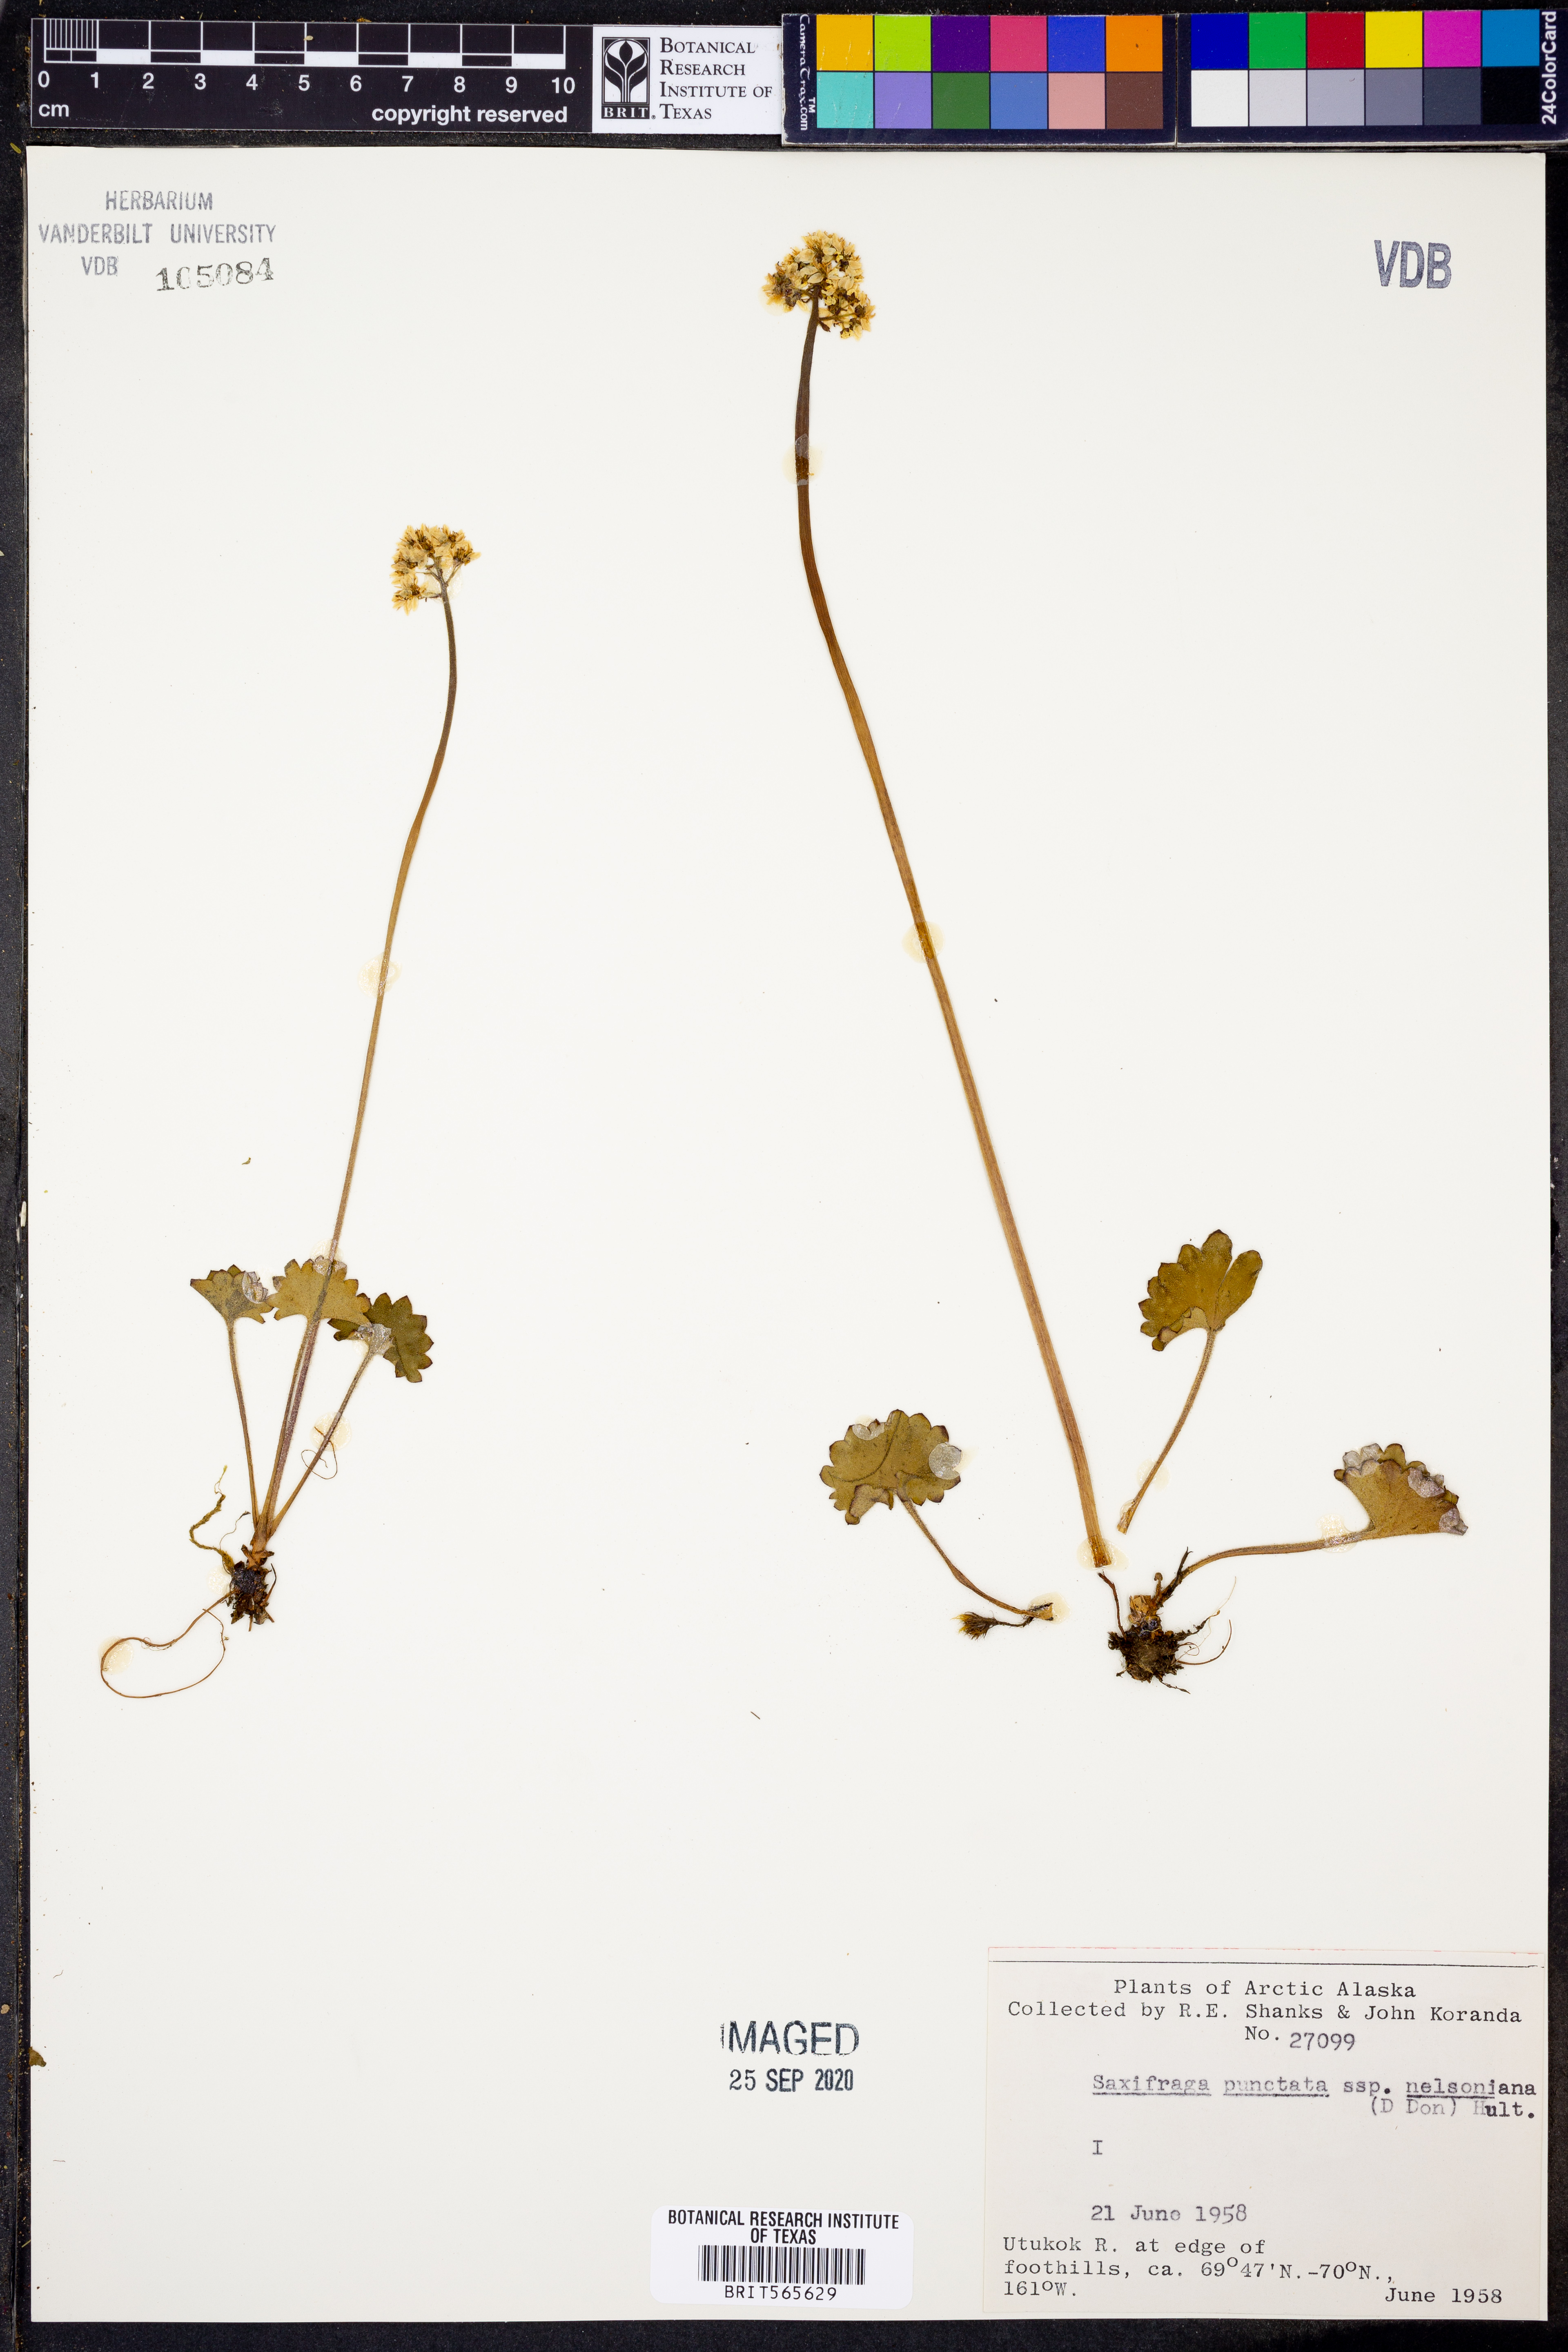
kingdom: Plantae
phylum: Tracheophyta
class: Magnoliopsida
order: Saxifragales
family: Saxifragaceae
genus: Micranthes
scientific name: Micranthes nelsoniana
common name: Nelson's saxifrage
